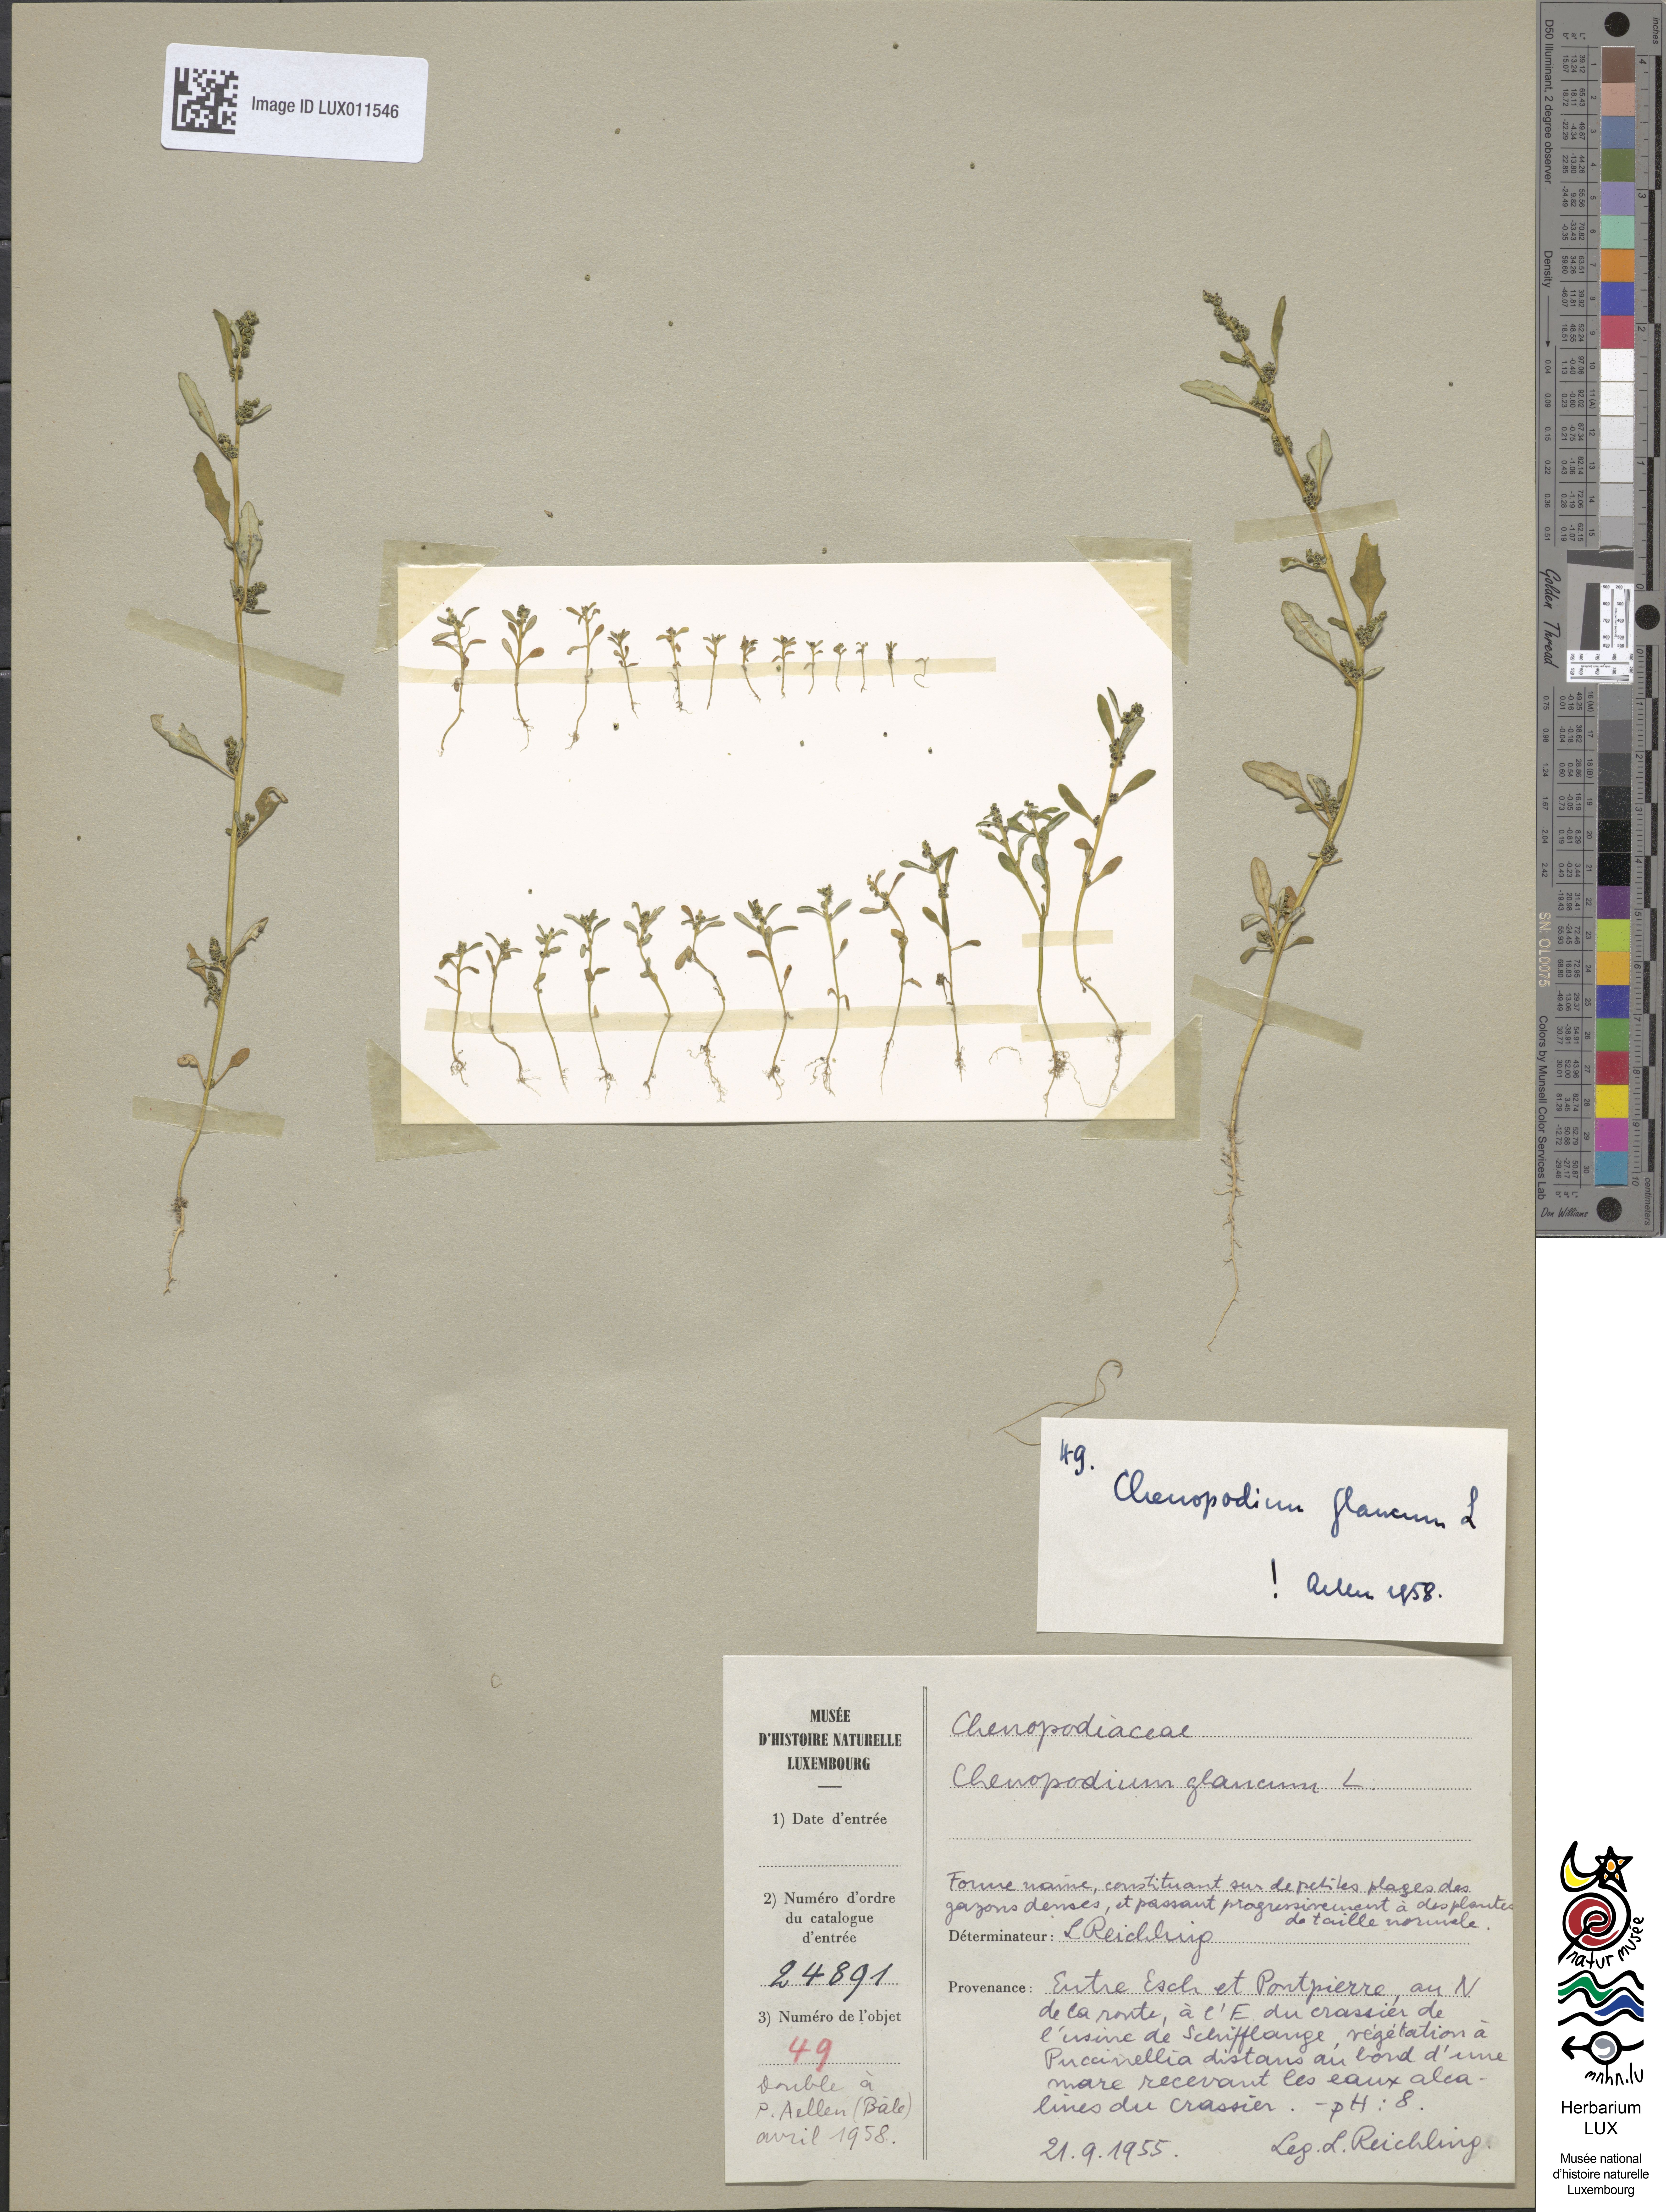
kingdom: Plantae
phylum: Tracheophyta
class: Magnoliopsida
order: Caryophyllales
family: Amaranthaceae
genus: Oxybasis
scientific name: Oxybasis glauca
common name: Glaucous goosefoot
